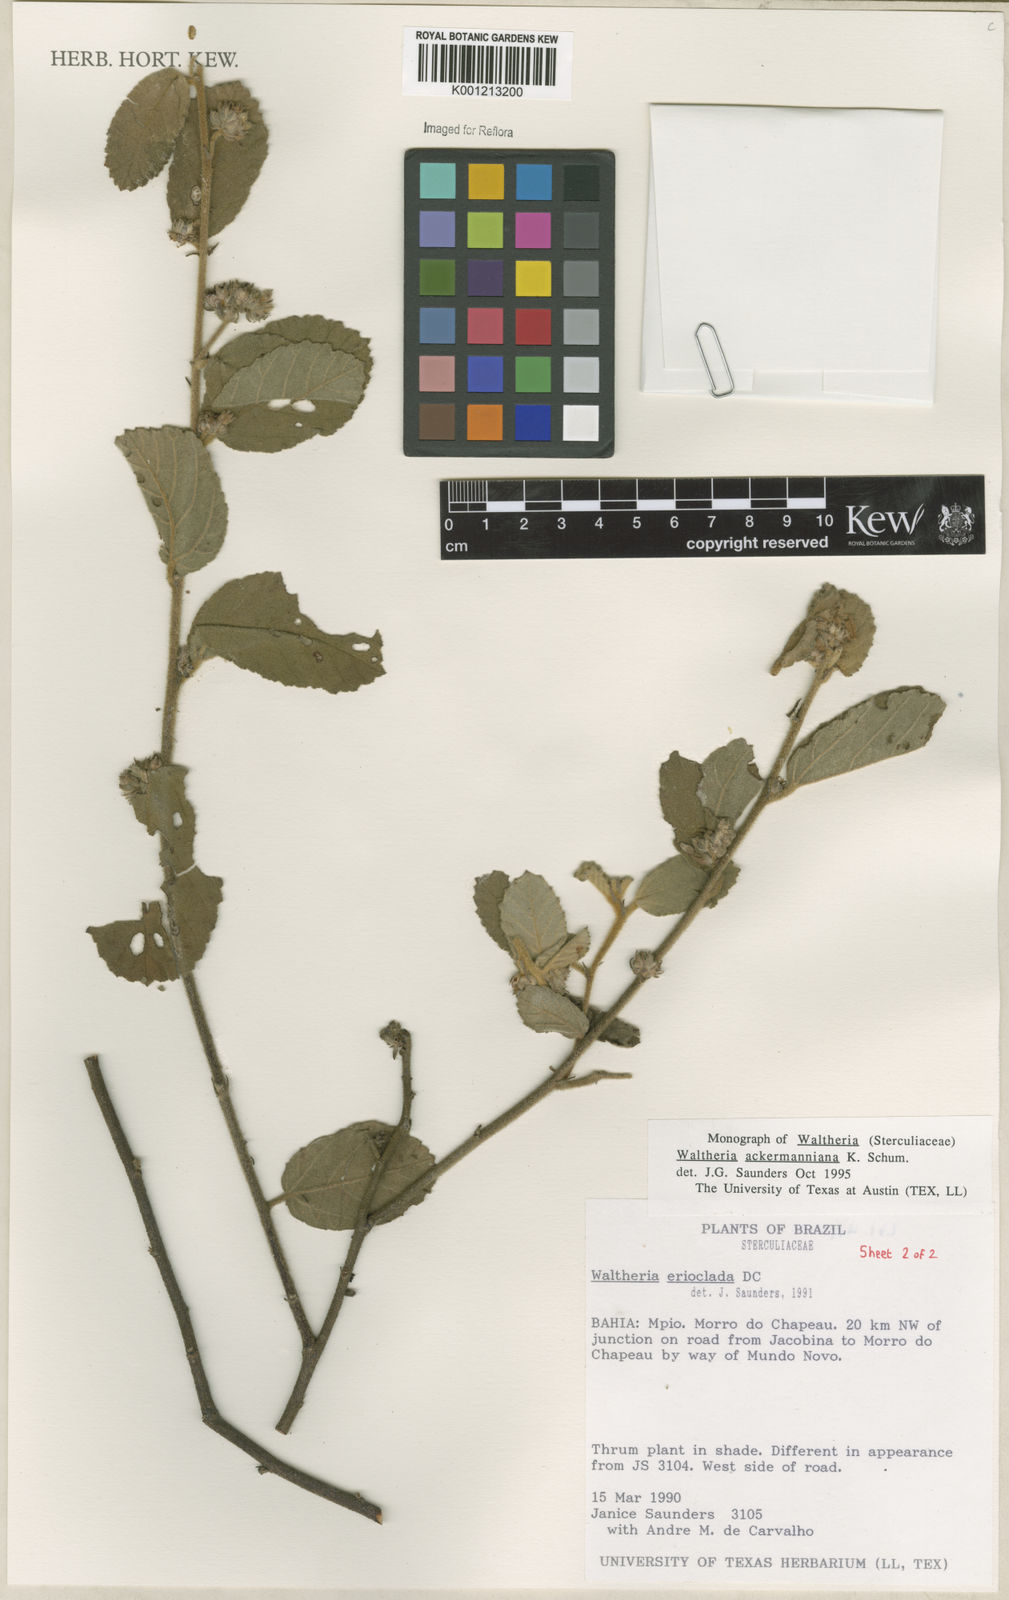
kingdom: Plantae
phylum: Tracheophyta
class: Magnoliopsida
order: Malvales
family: Malvaceae
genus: Waltheria
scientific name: Waltheria ackermanniana
